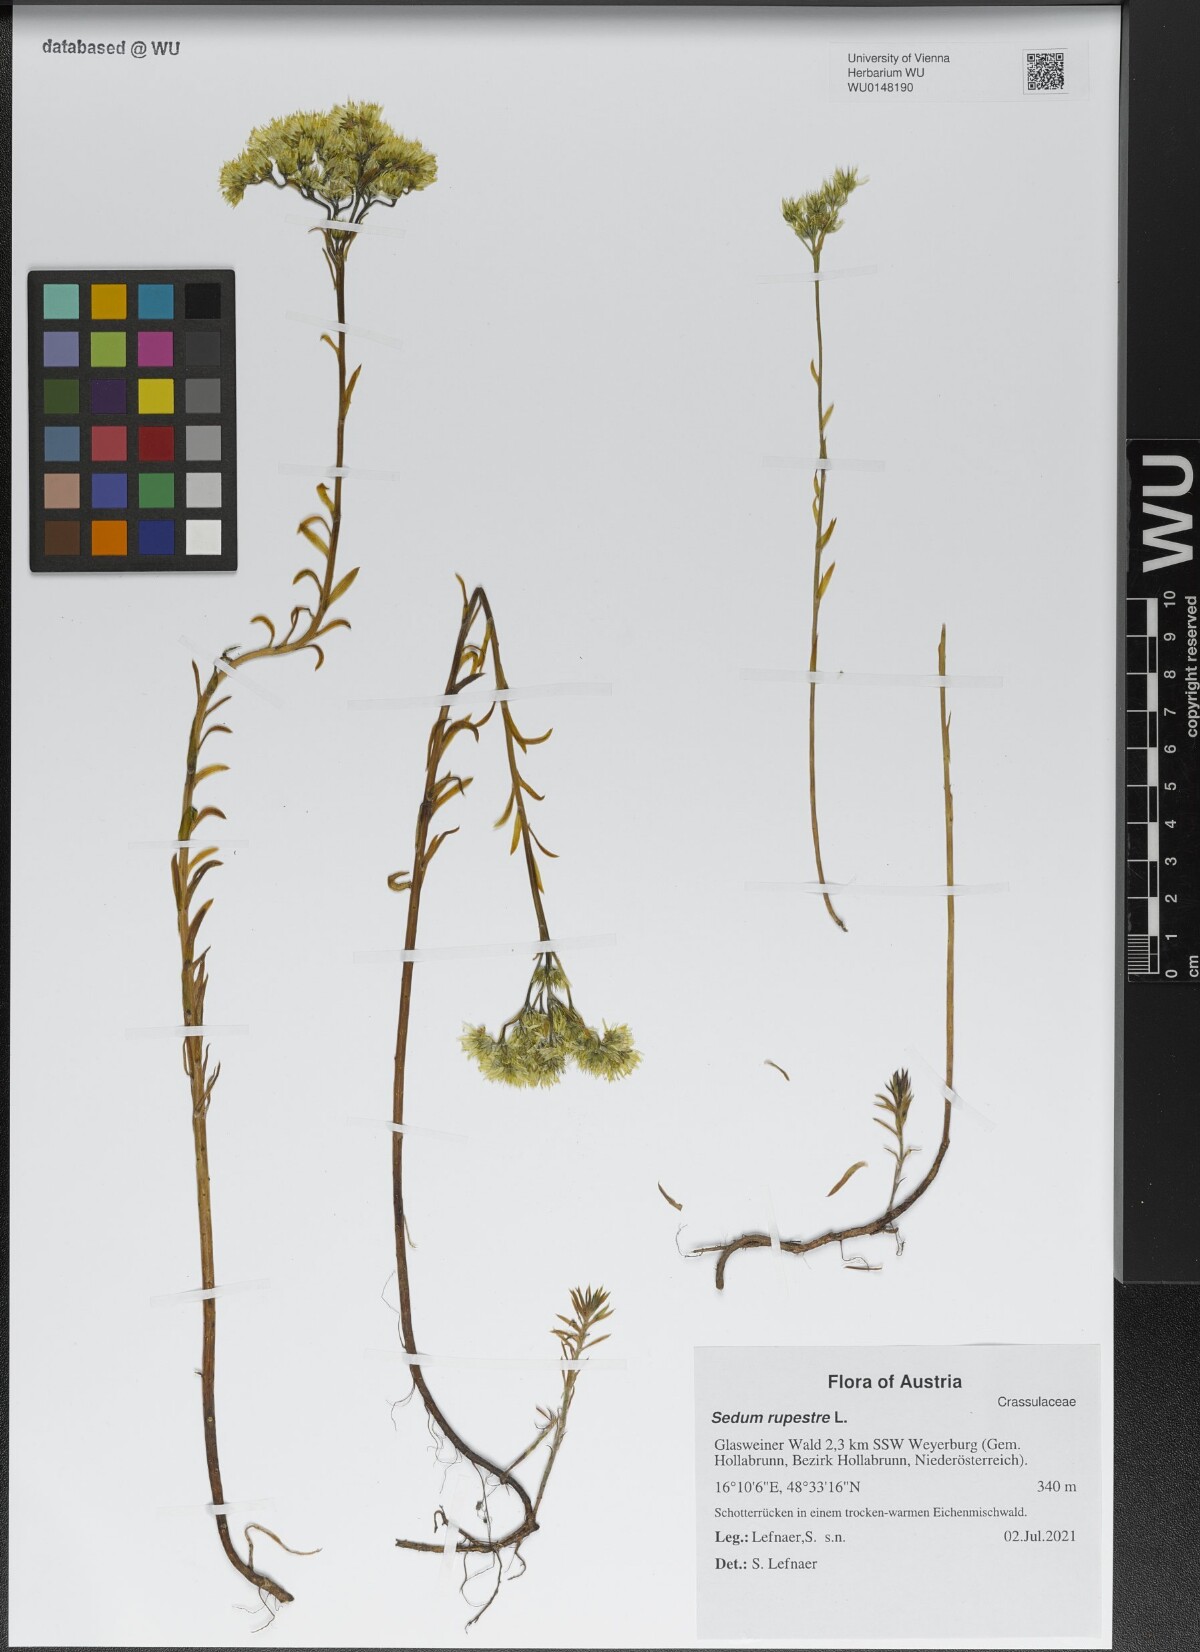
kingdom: Plantae
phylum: Tracheophyta
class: Magnoliopsida
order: Saxifragales
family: Crassulaceae
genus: Petrosedum
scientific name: Petrosedum rupestre
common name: Jenny's stonecrop
